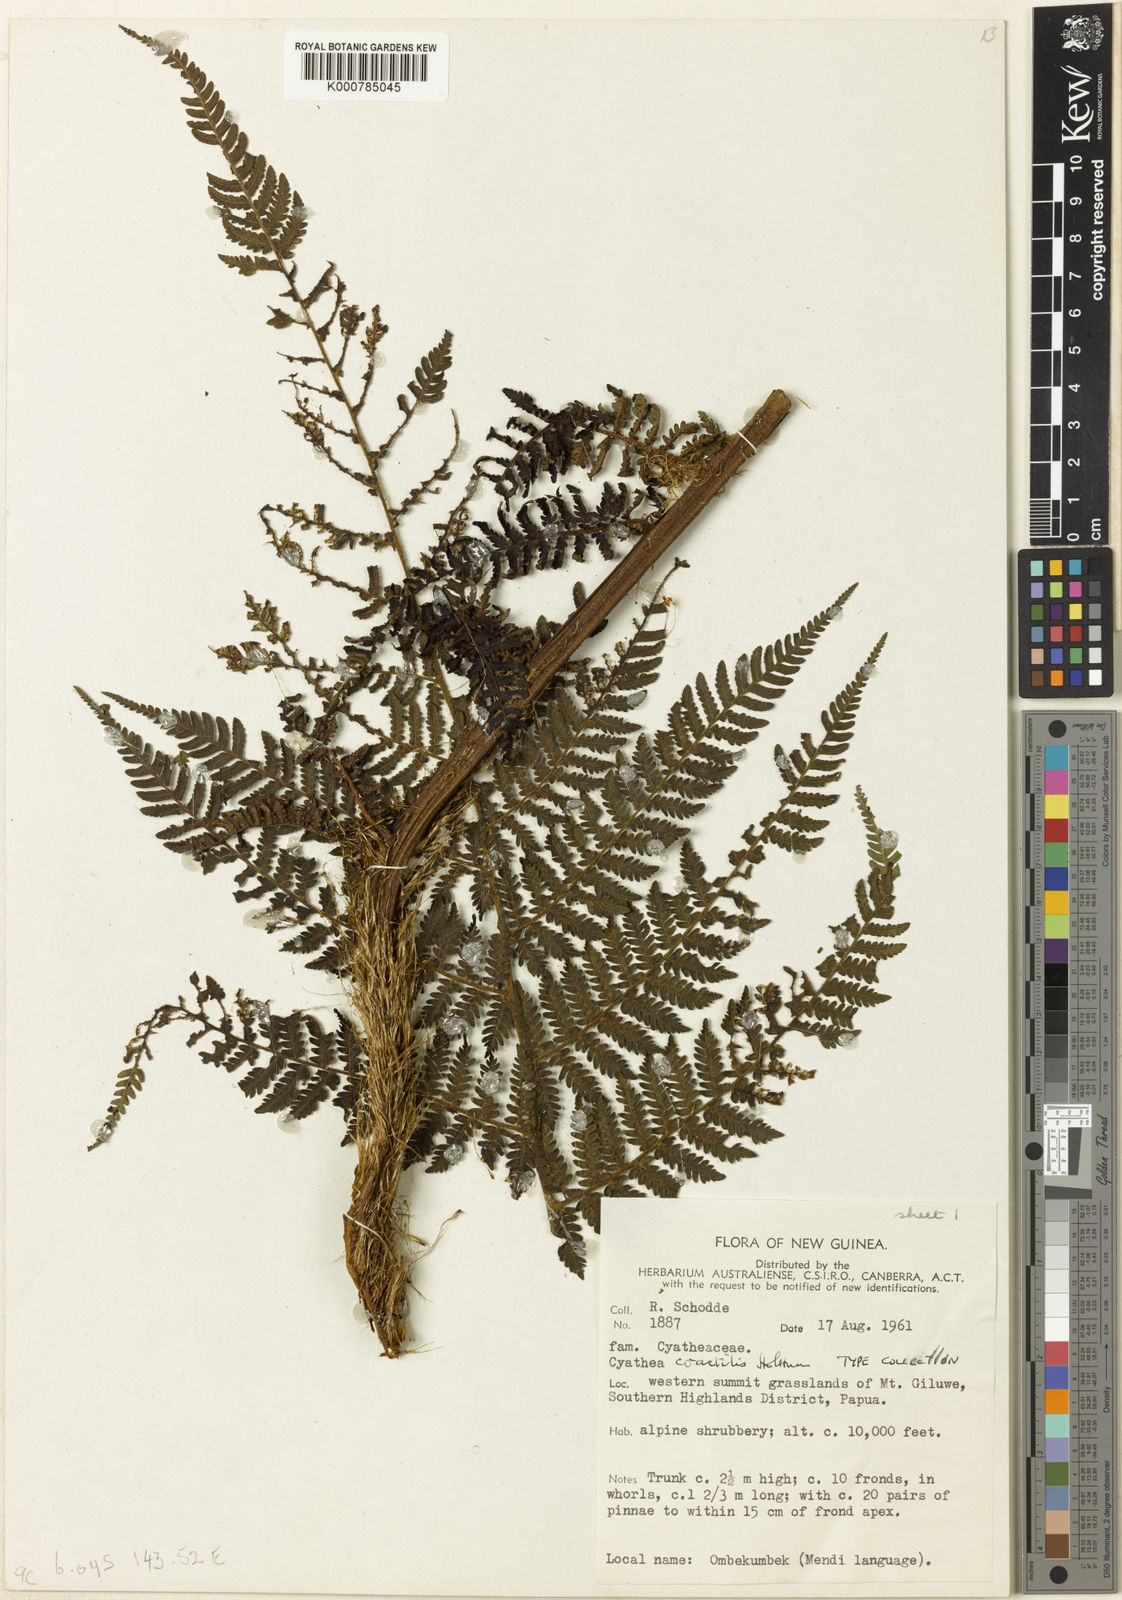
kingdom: Plantae
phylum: Tracheophyta
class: Polypodiopsida
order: Cyatheales
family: Cyatheaceae
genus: Alsophila
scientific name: Alsophila coactilis
